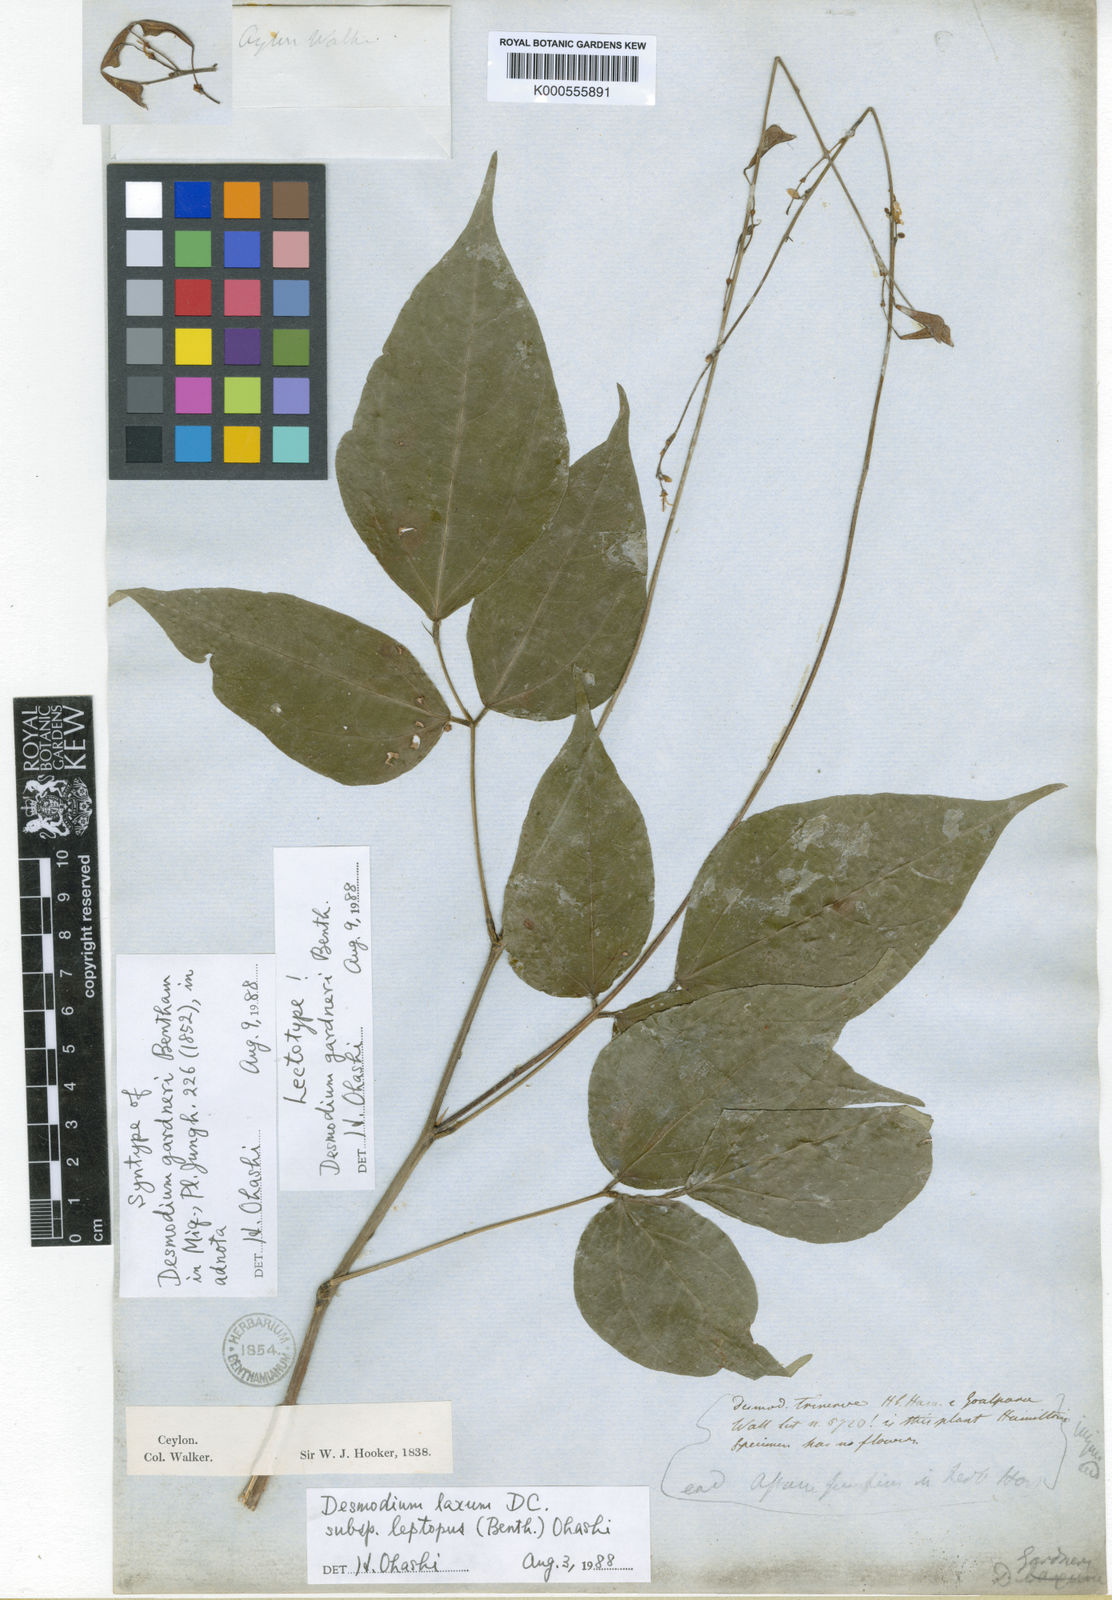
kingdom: Plantae
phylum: Tracheophyta
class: Magnoliopsida
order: Fabales
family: Fabaceae
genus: Hylodesmum
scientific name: Hylodesmum leptopus
